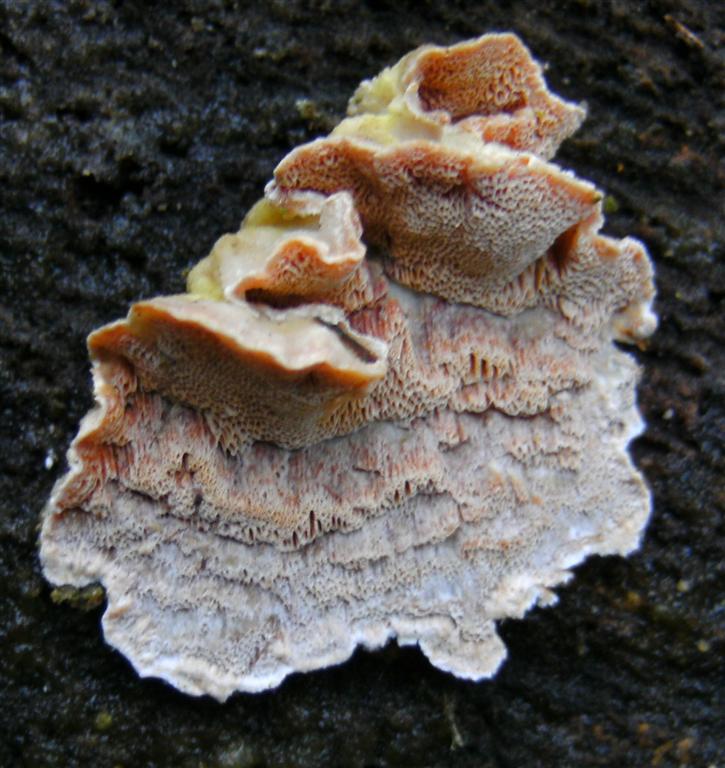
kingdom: Fungi
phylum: Basidiomycota
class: Agaricomycetes
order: Polyporales
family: Incrustoporiaceae
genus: Skeletocutis
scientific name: Skeletocutis amorpha
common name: orange krystalporesvamp
